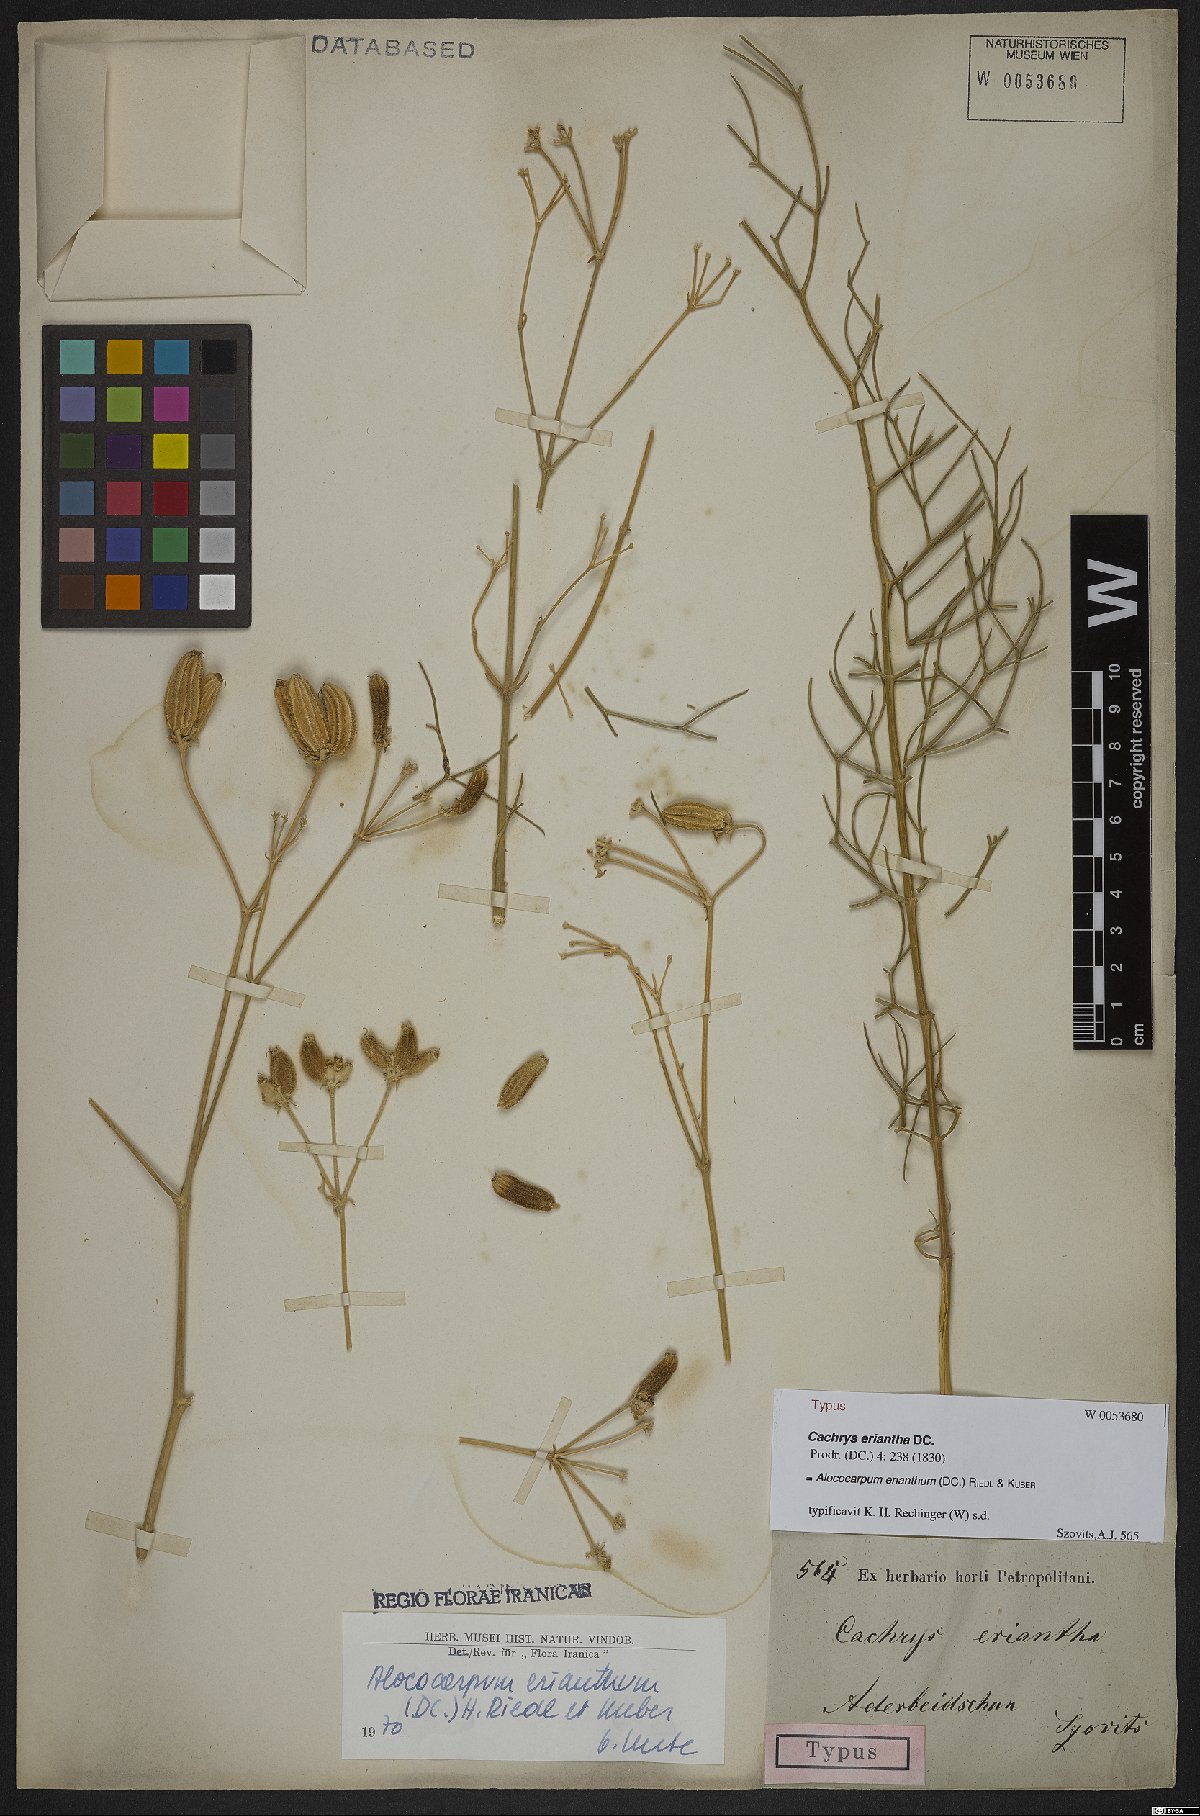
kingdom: Plantae
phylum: Tracheophyta
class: Magnoliopsida
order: Apiales
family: Apiaceae
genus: Prangos
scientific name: Prangos eriantha
